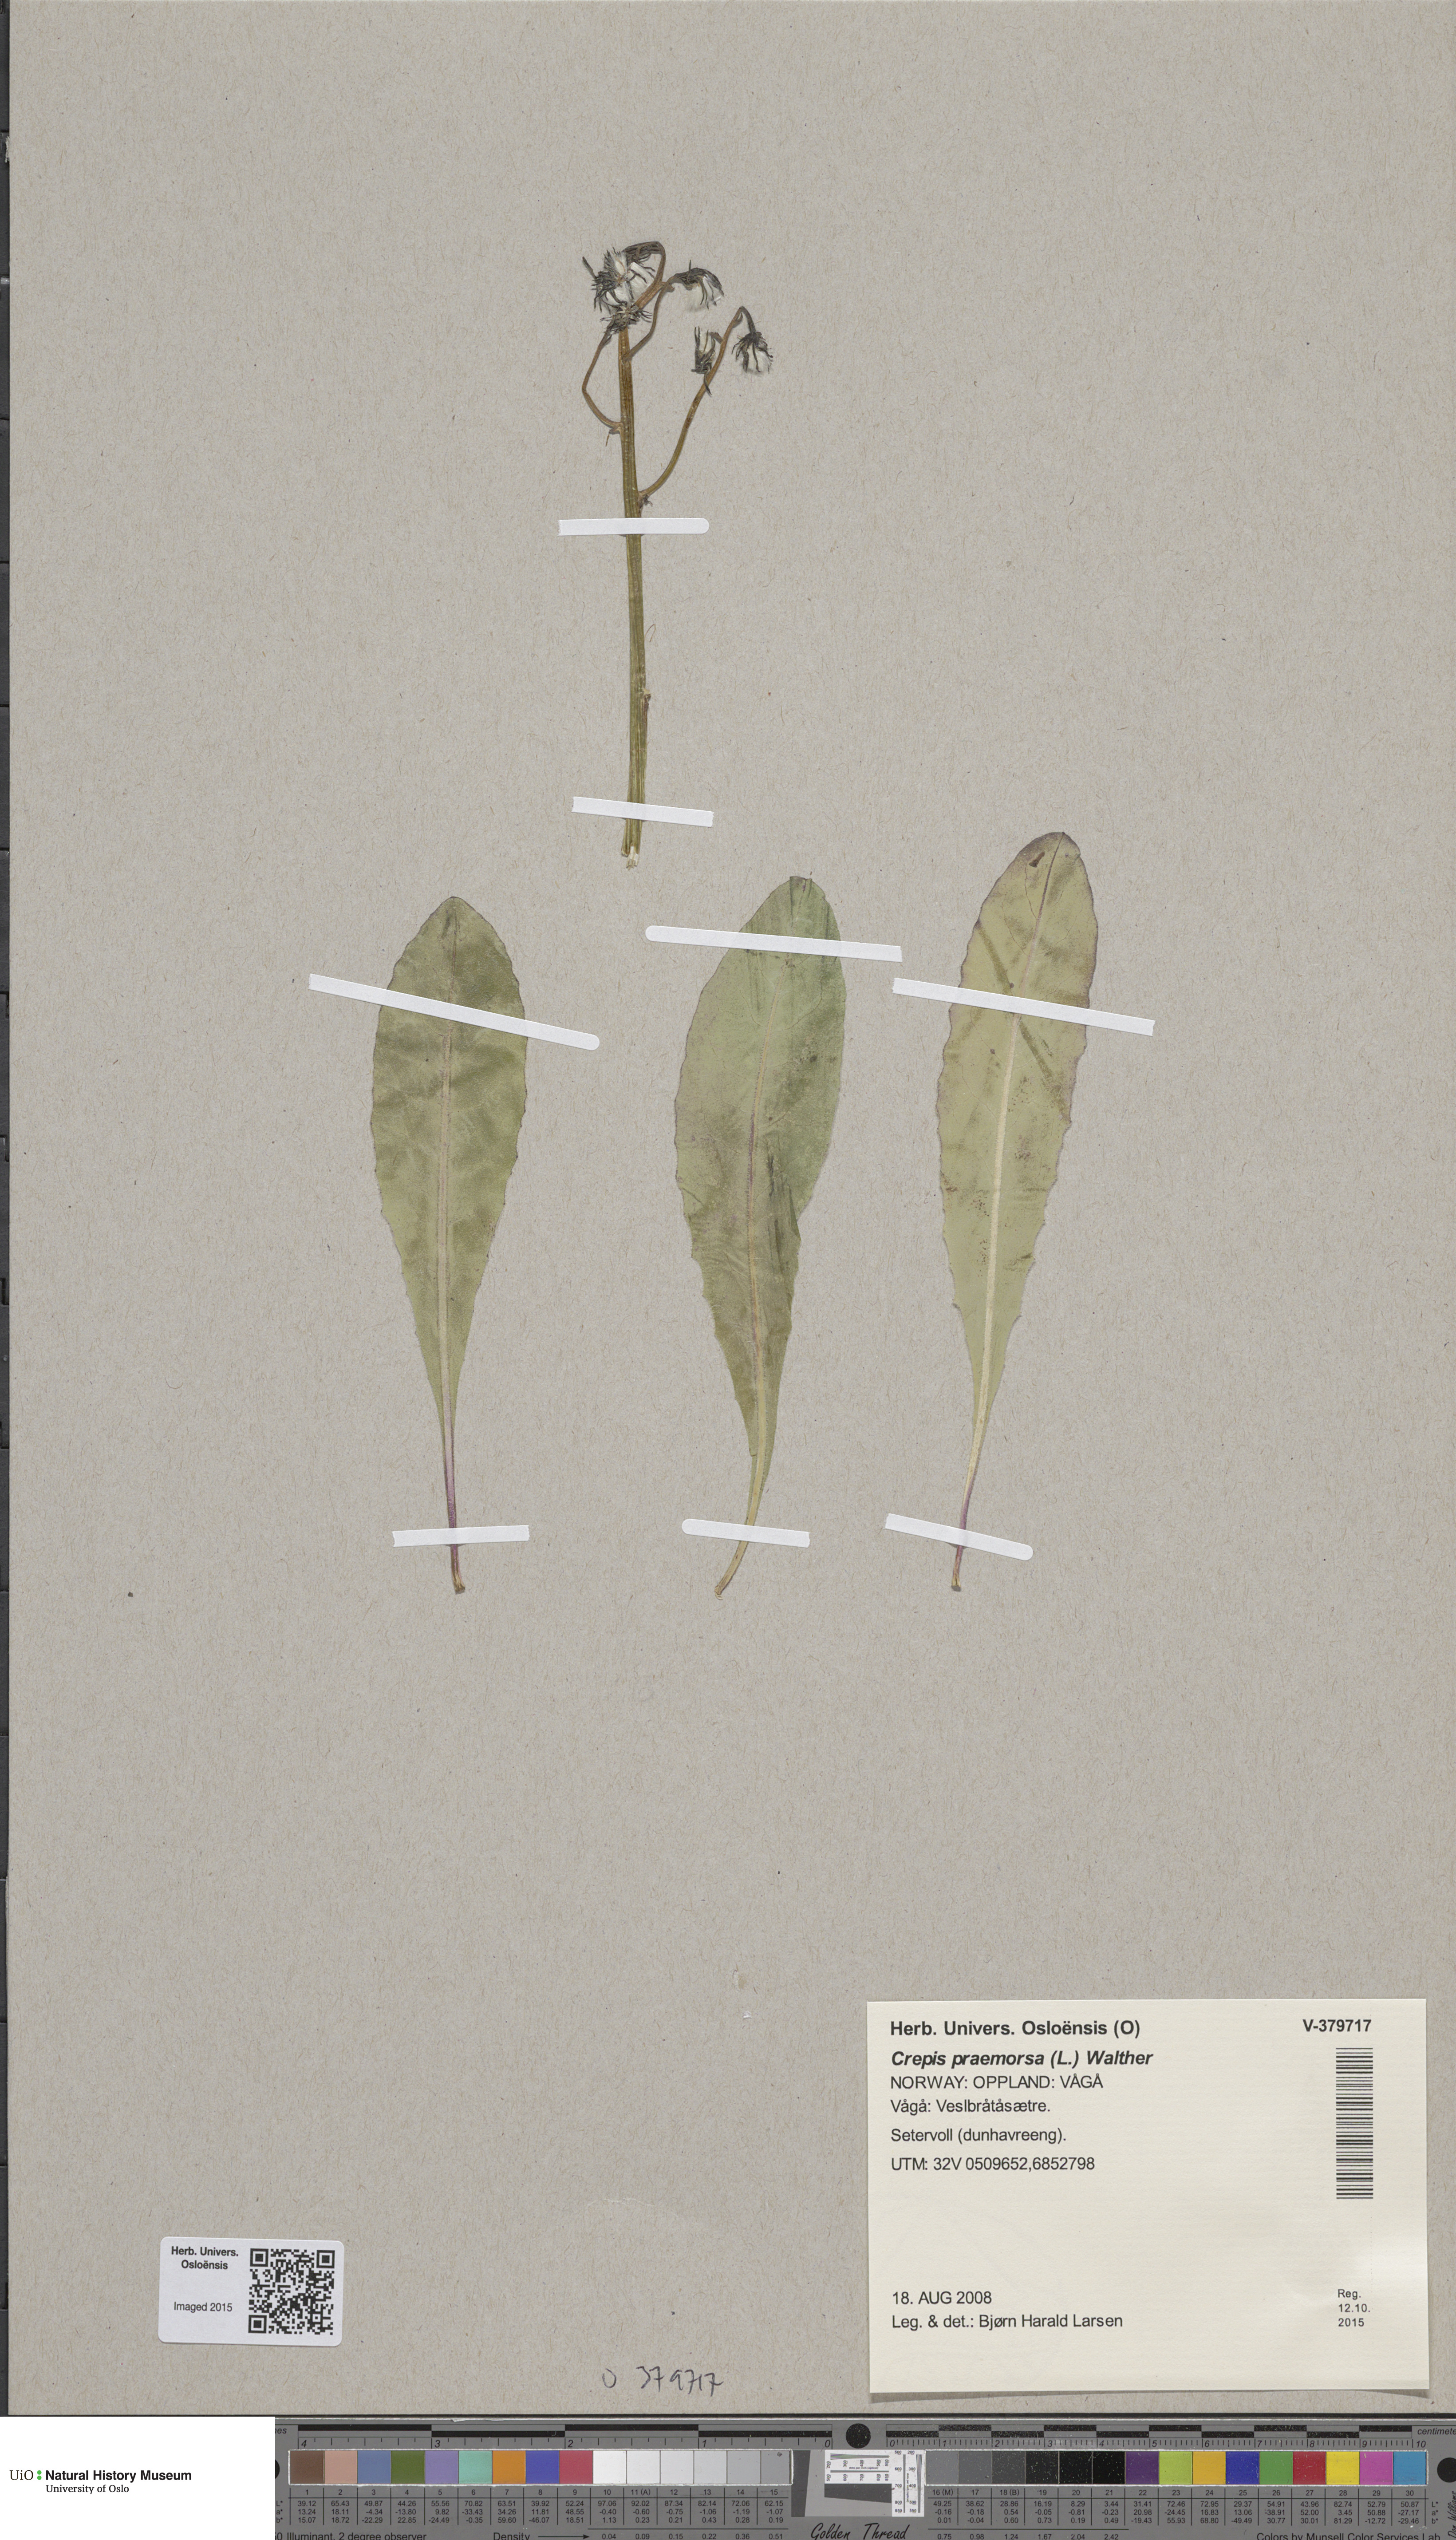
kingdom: Plantae
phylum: Tracheophyta
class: Magnoliopsida
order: Asterales
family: Asteraceae
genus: Crepis
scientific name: Crepis praemorsa
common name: Leafless hawk's-beard
